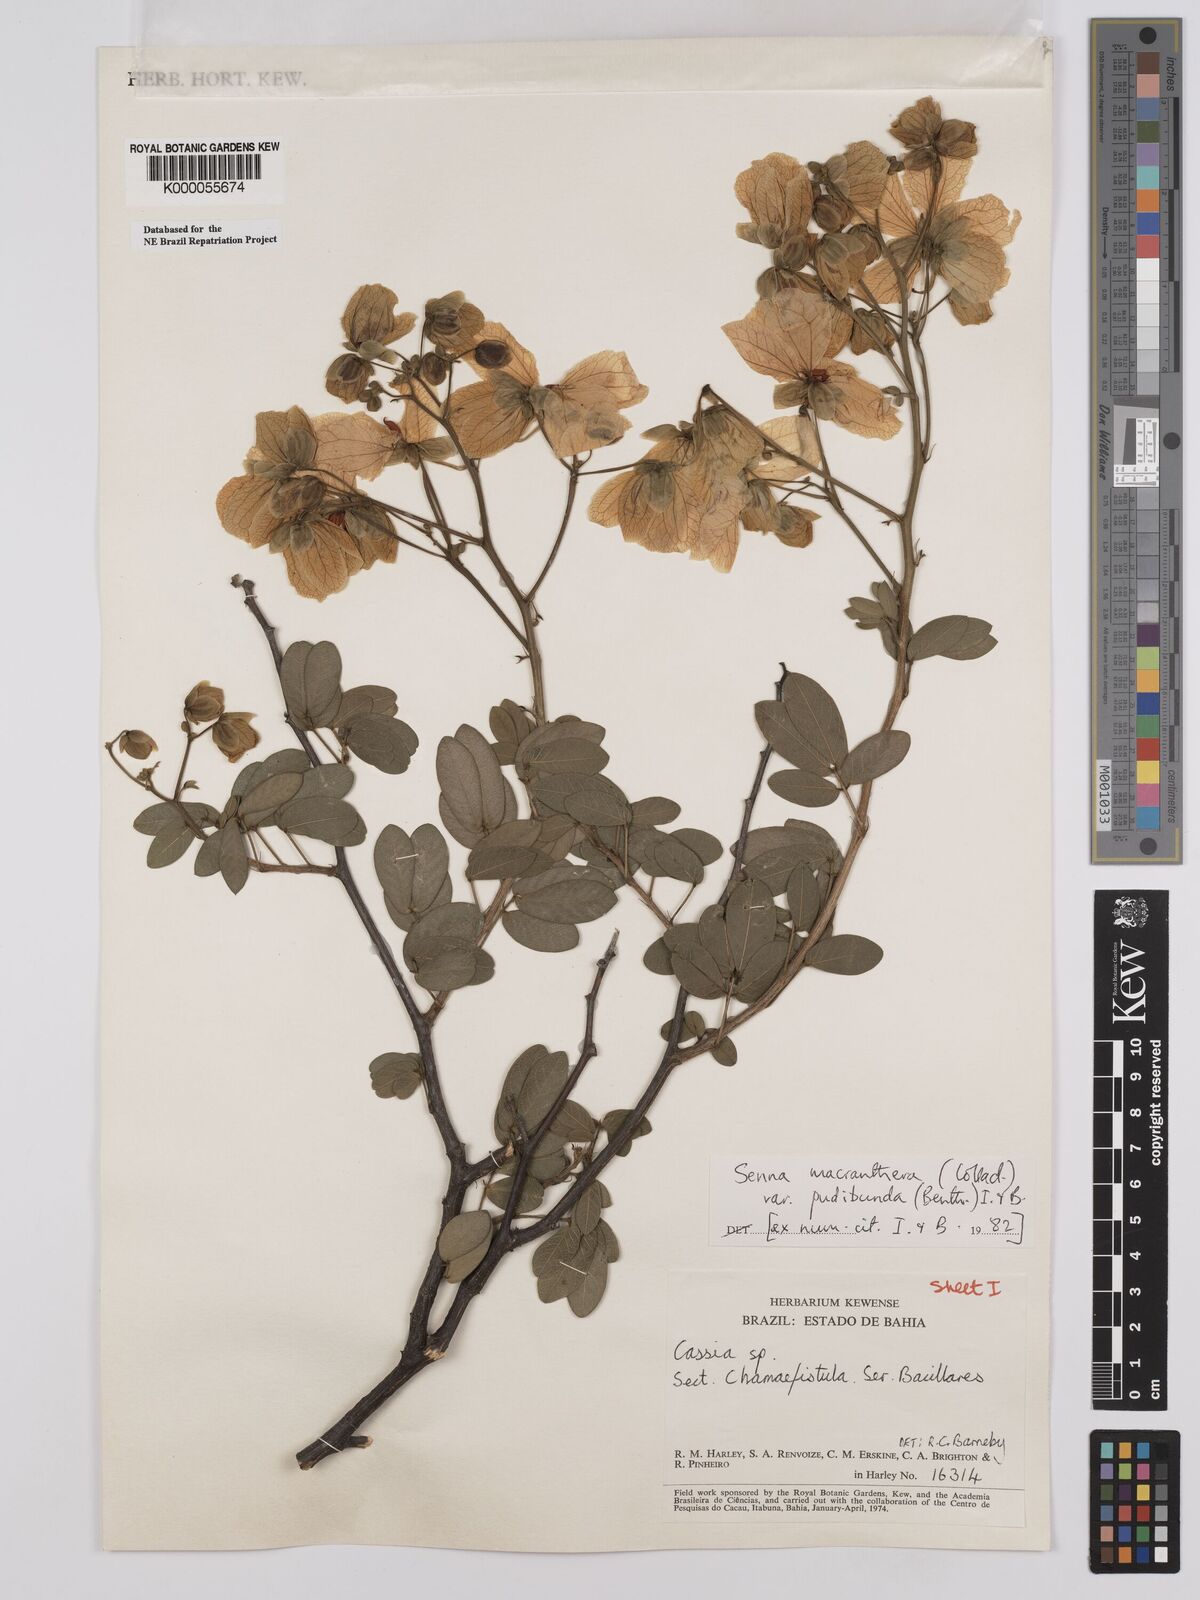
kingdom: Plantae
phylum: Tracheophyta
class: Magnoliopsida
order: Fabales
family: Fabaceae
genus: Senna
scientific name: Senna macranthera
